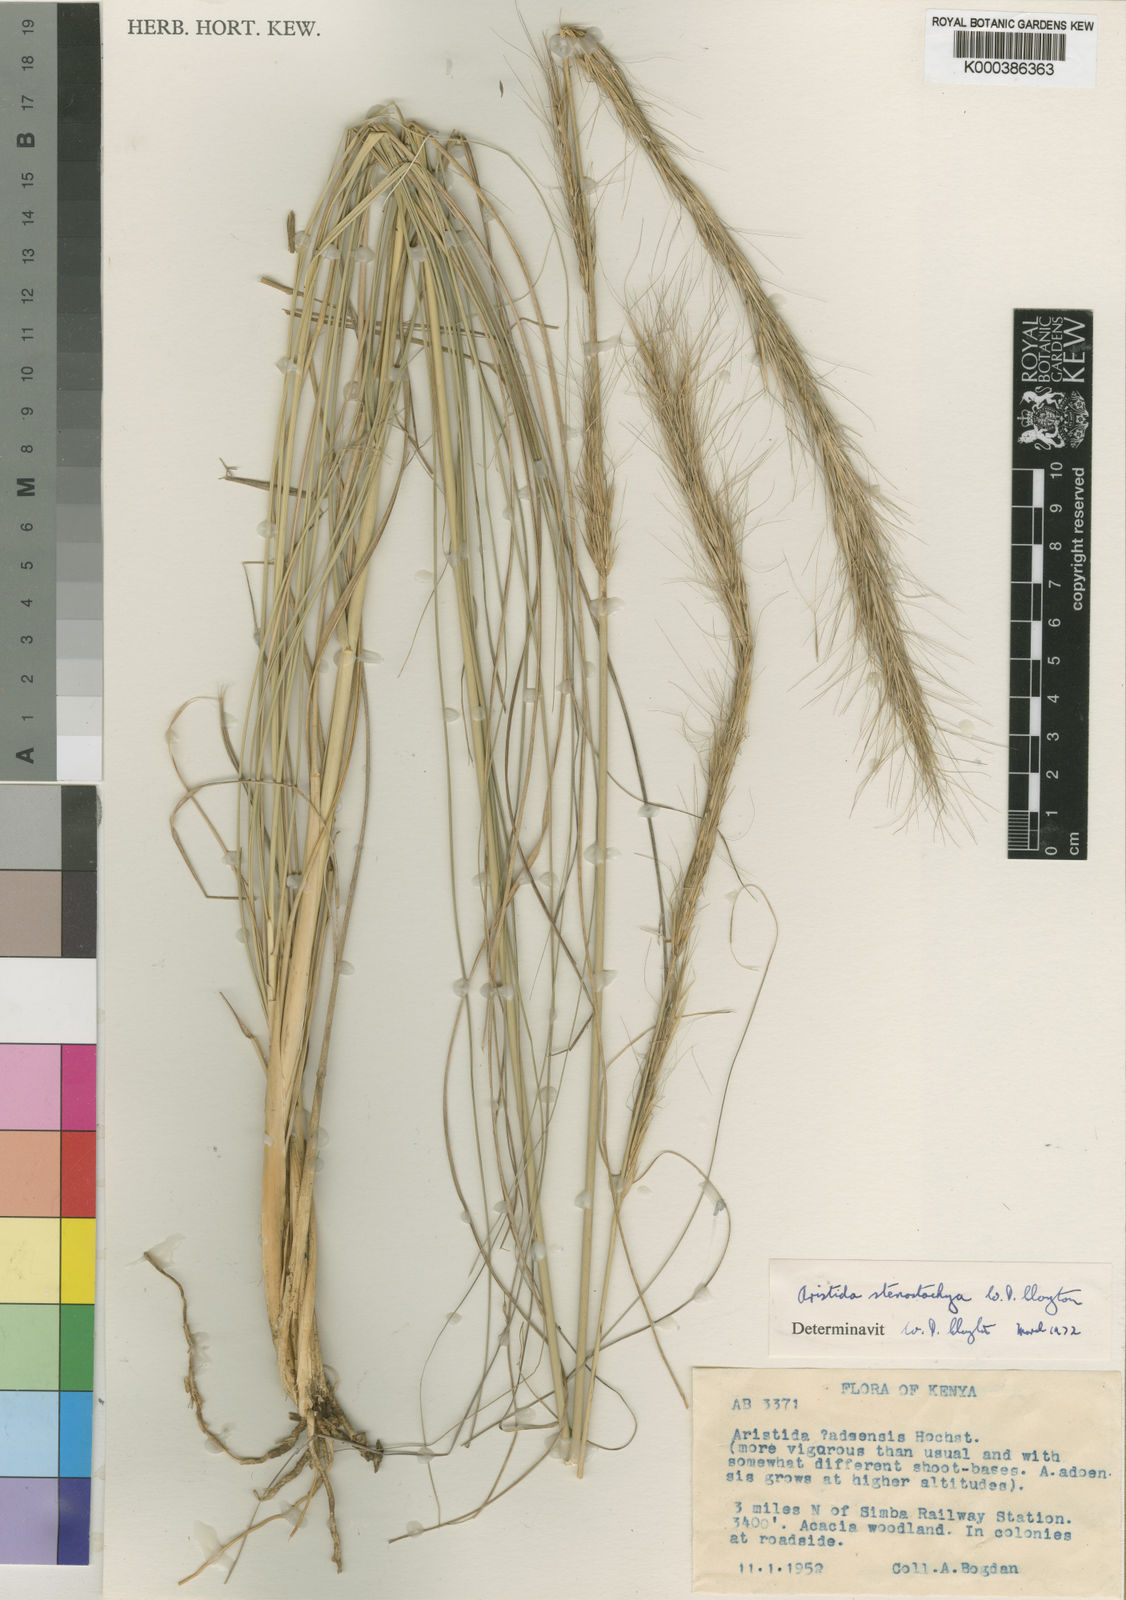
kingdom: Plantae
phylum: Tracheophyta
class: Liliopsida
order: Poales
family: Poaceae
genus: Aristida
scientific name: Aristida stenostachya
